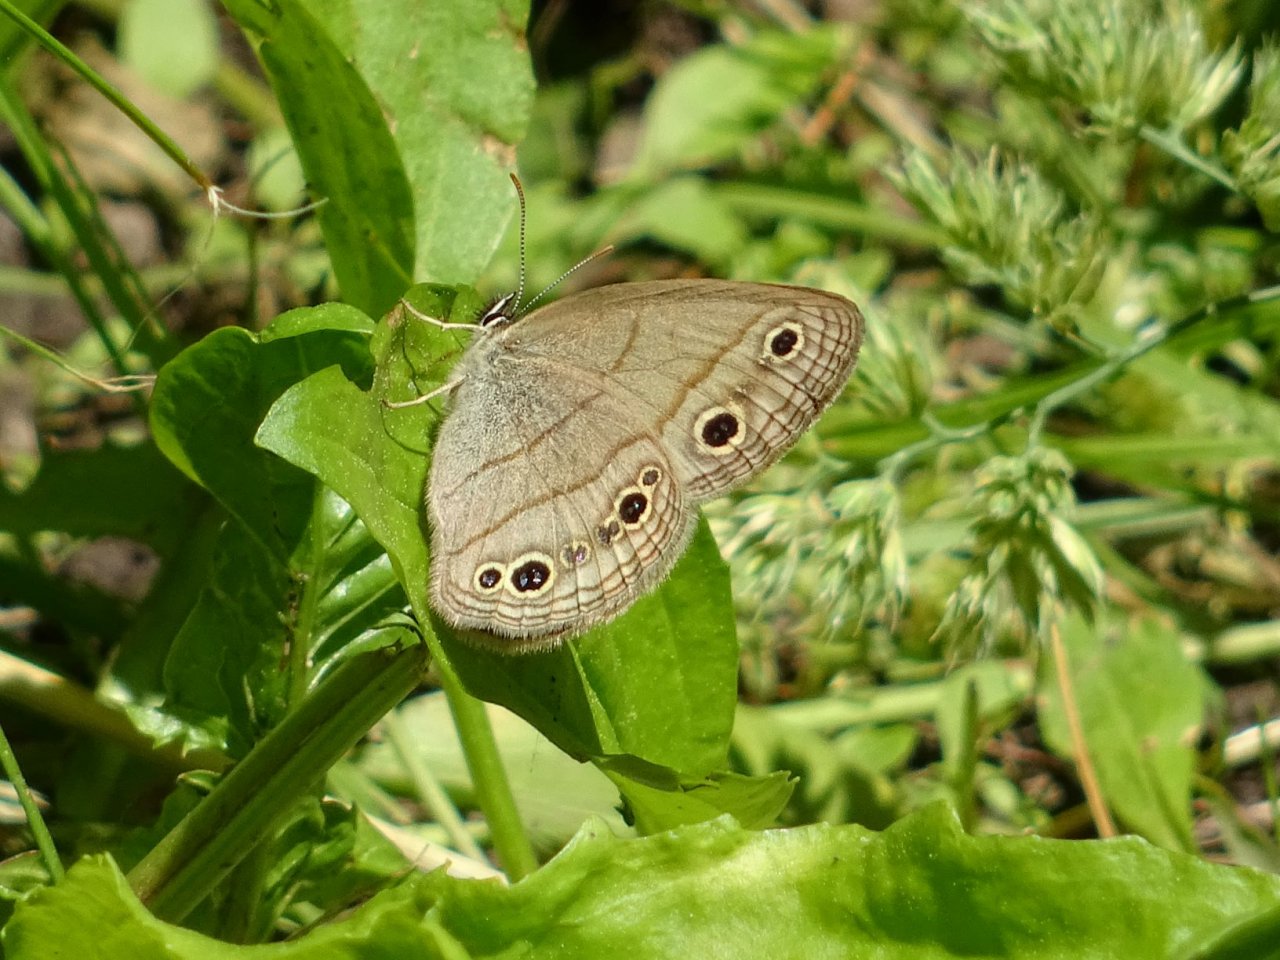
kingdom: Animalia
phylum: Arthropoda
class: Insecta
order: Lepidoptera
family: Nymphalidae
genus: Euptychia
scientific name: Euptychia cymela
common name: Little Wood Satyr
